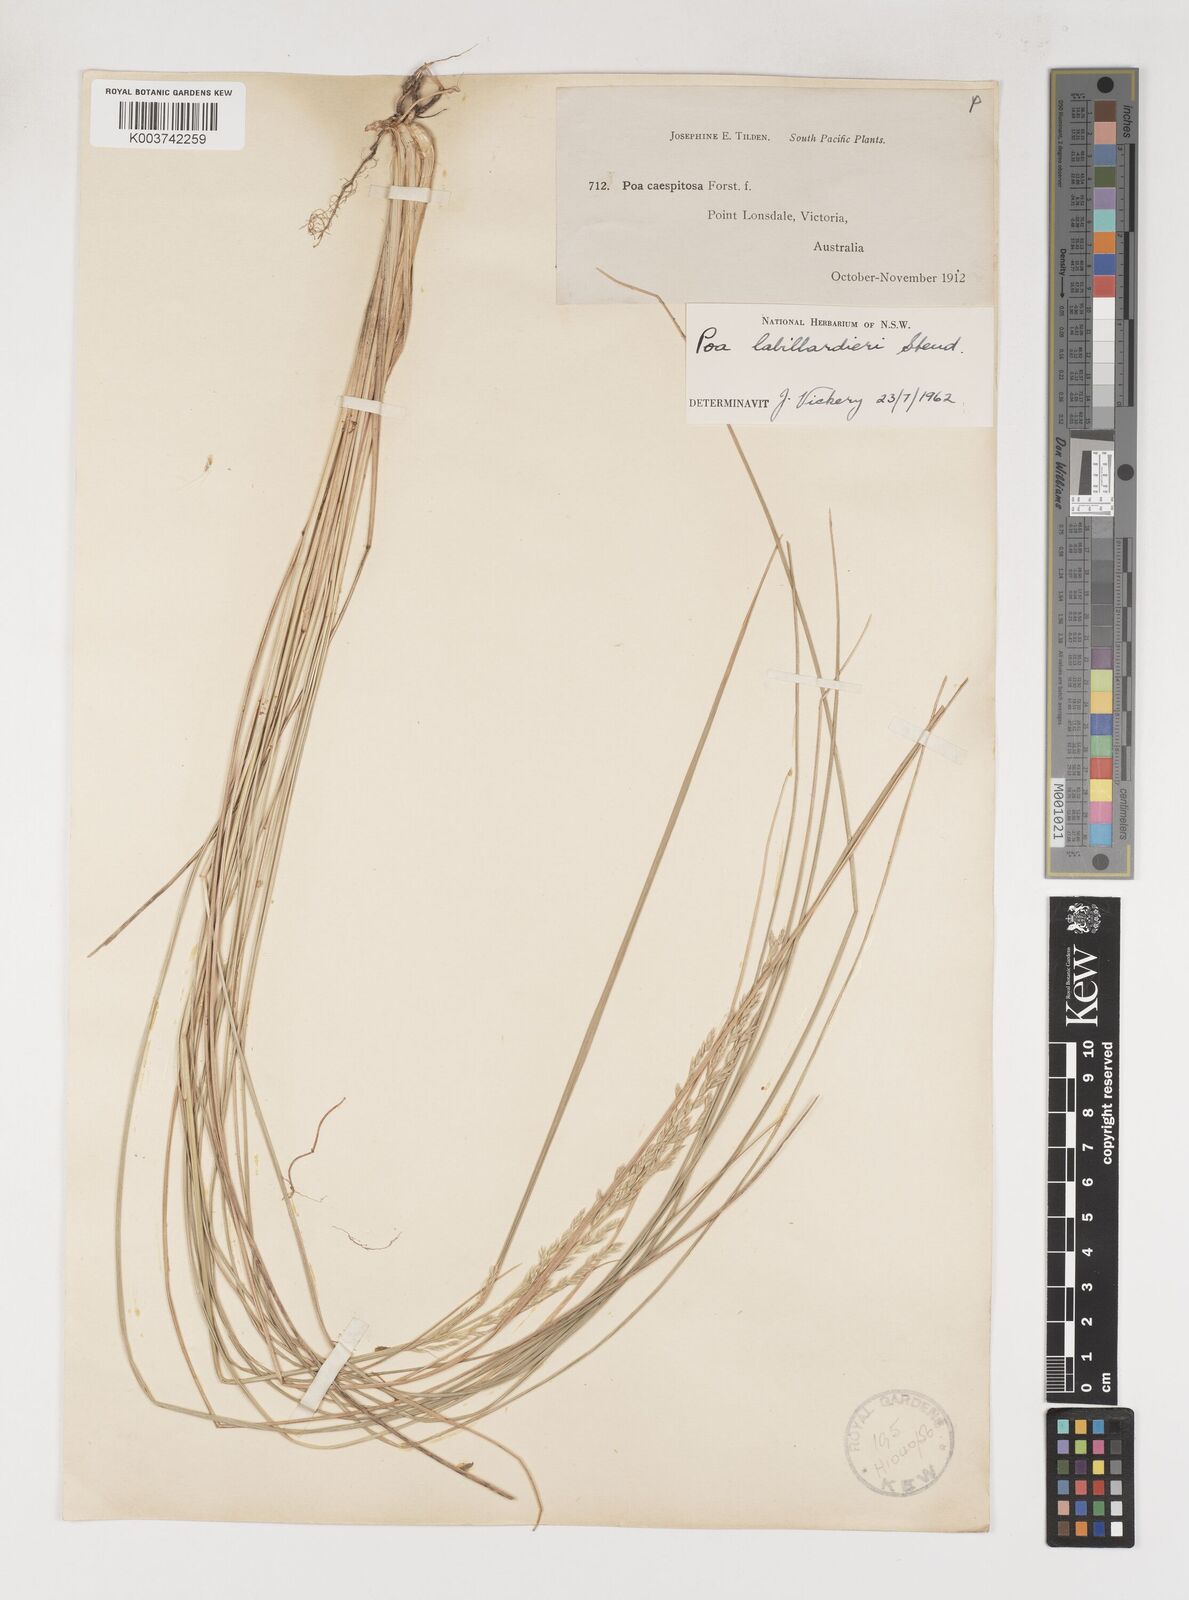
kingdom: Plantae
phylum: Tracheophyta
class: Liliopsida
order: Poales
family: Poaceae
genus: Poa
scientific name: Poa labillardierei
